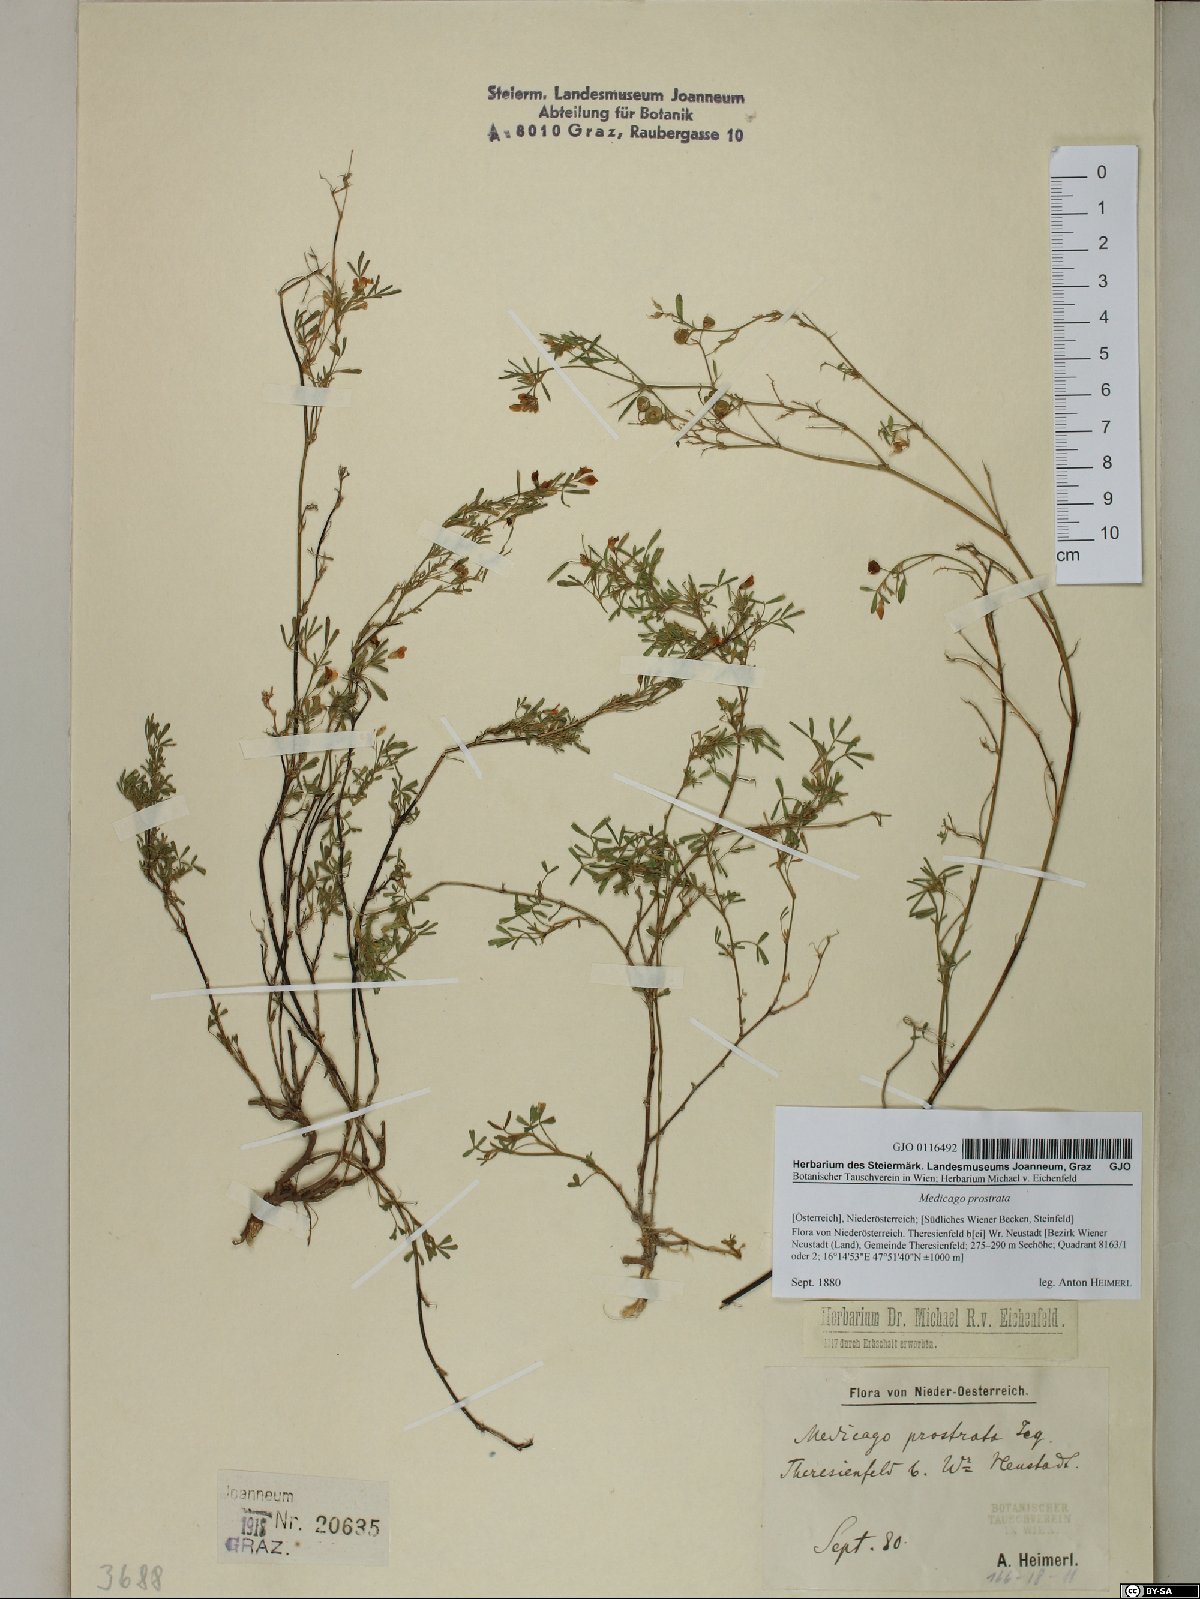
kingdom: Plantae
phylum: Tracheophyta
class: Magnoliopsida
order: Fabales
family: Fabaceae
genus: Medicago
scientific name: Medicago prostrata
